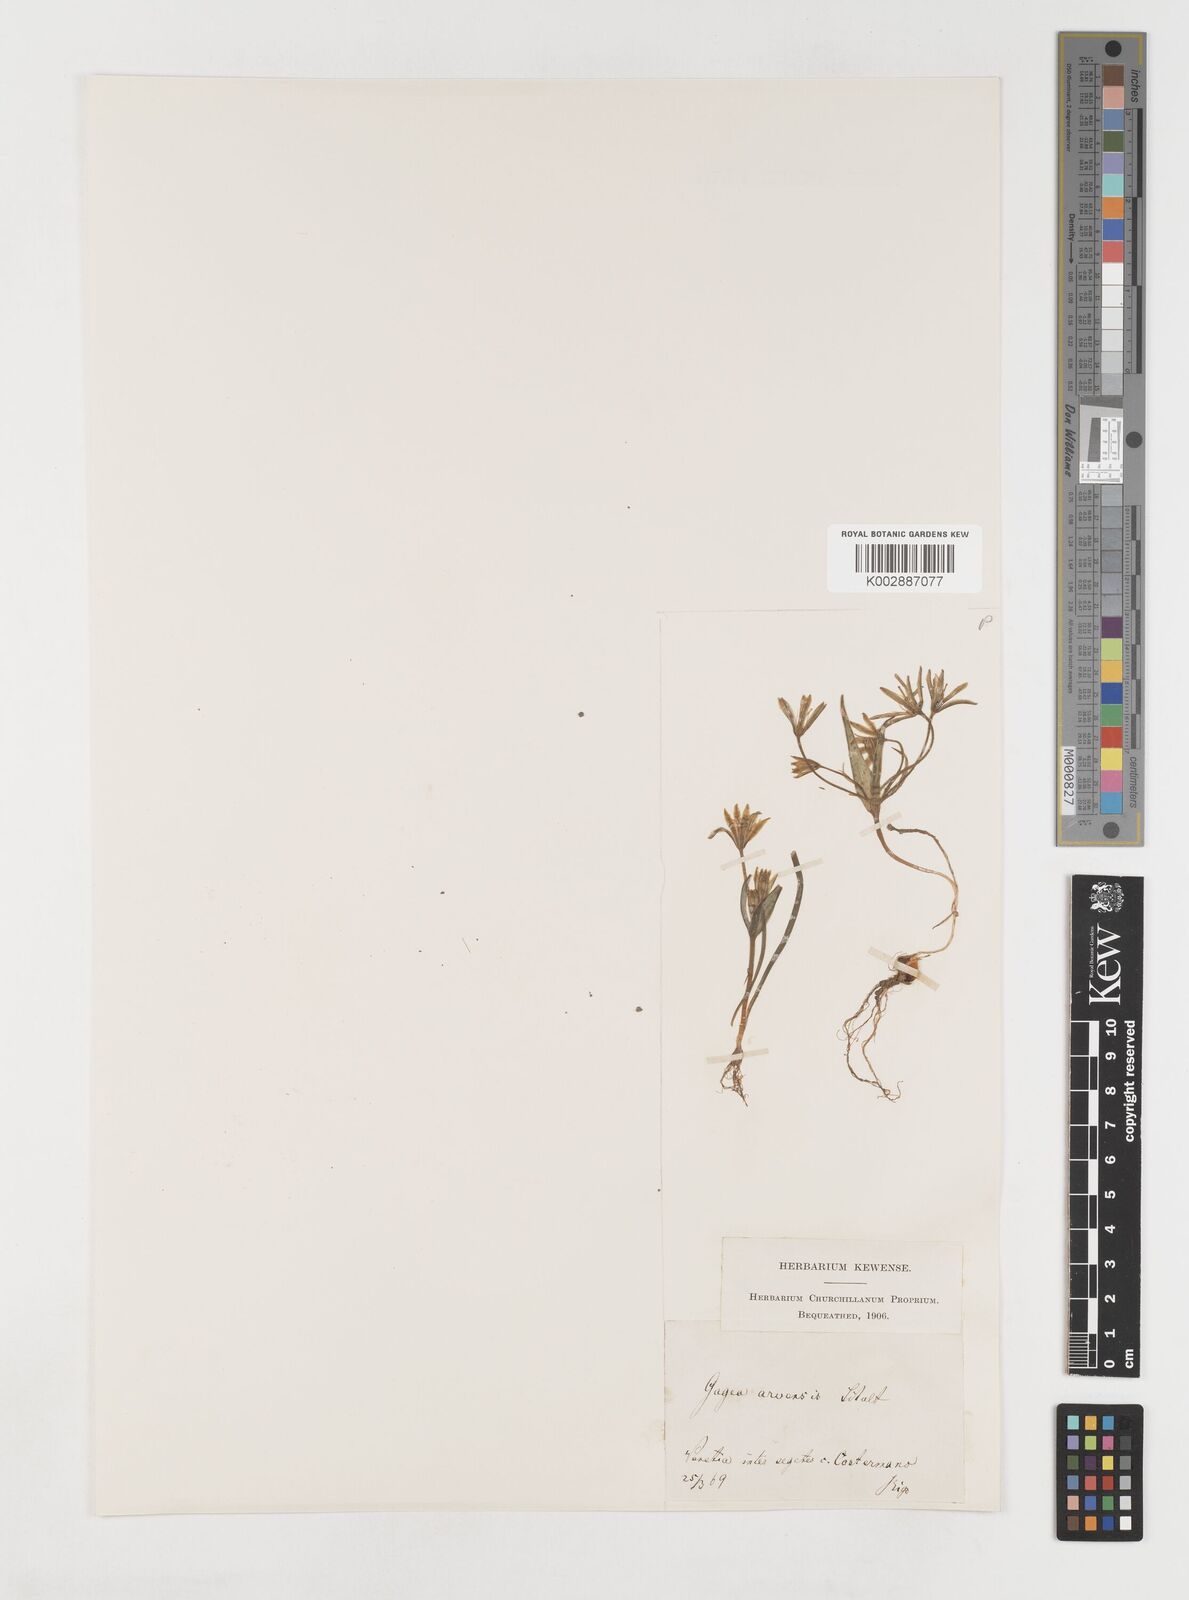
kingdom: Plantae
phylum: Tracheophyta
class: Liliopsida
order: Liliales
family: Liliaceae
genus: Gagea
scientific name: Gagea minima
